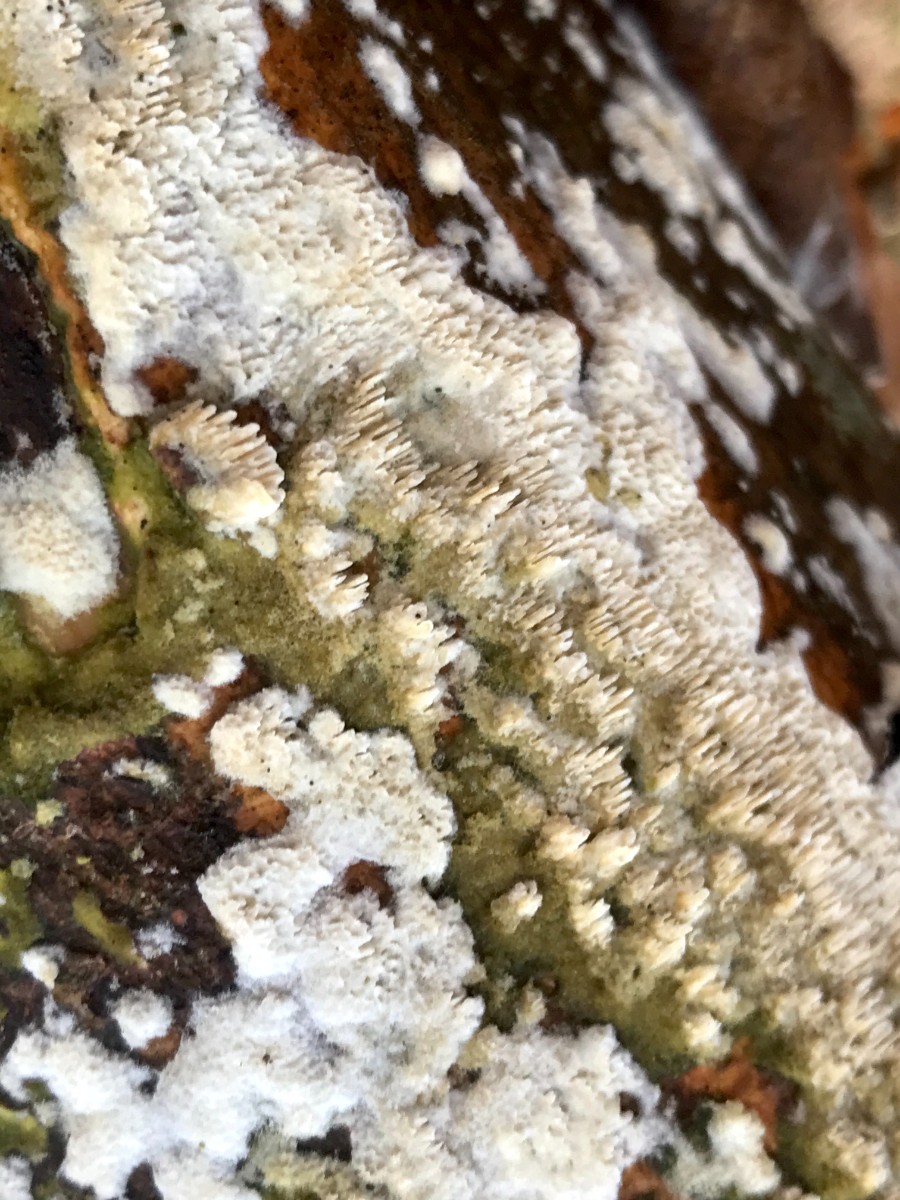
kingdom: Fungi
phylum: Basidiomycota
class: Agaricomycetes
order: Hymenochaetales
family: Schizoporaceae
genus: Schizopora
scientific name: Schizopora paradoxa
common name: hvid tandsvamp
